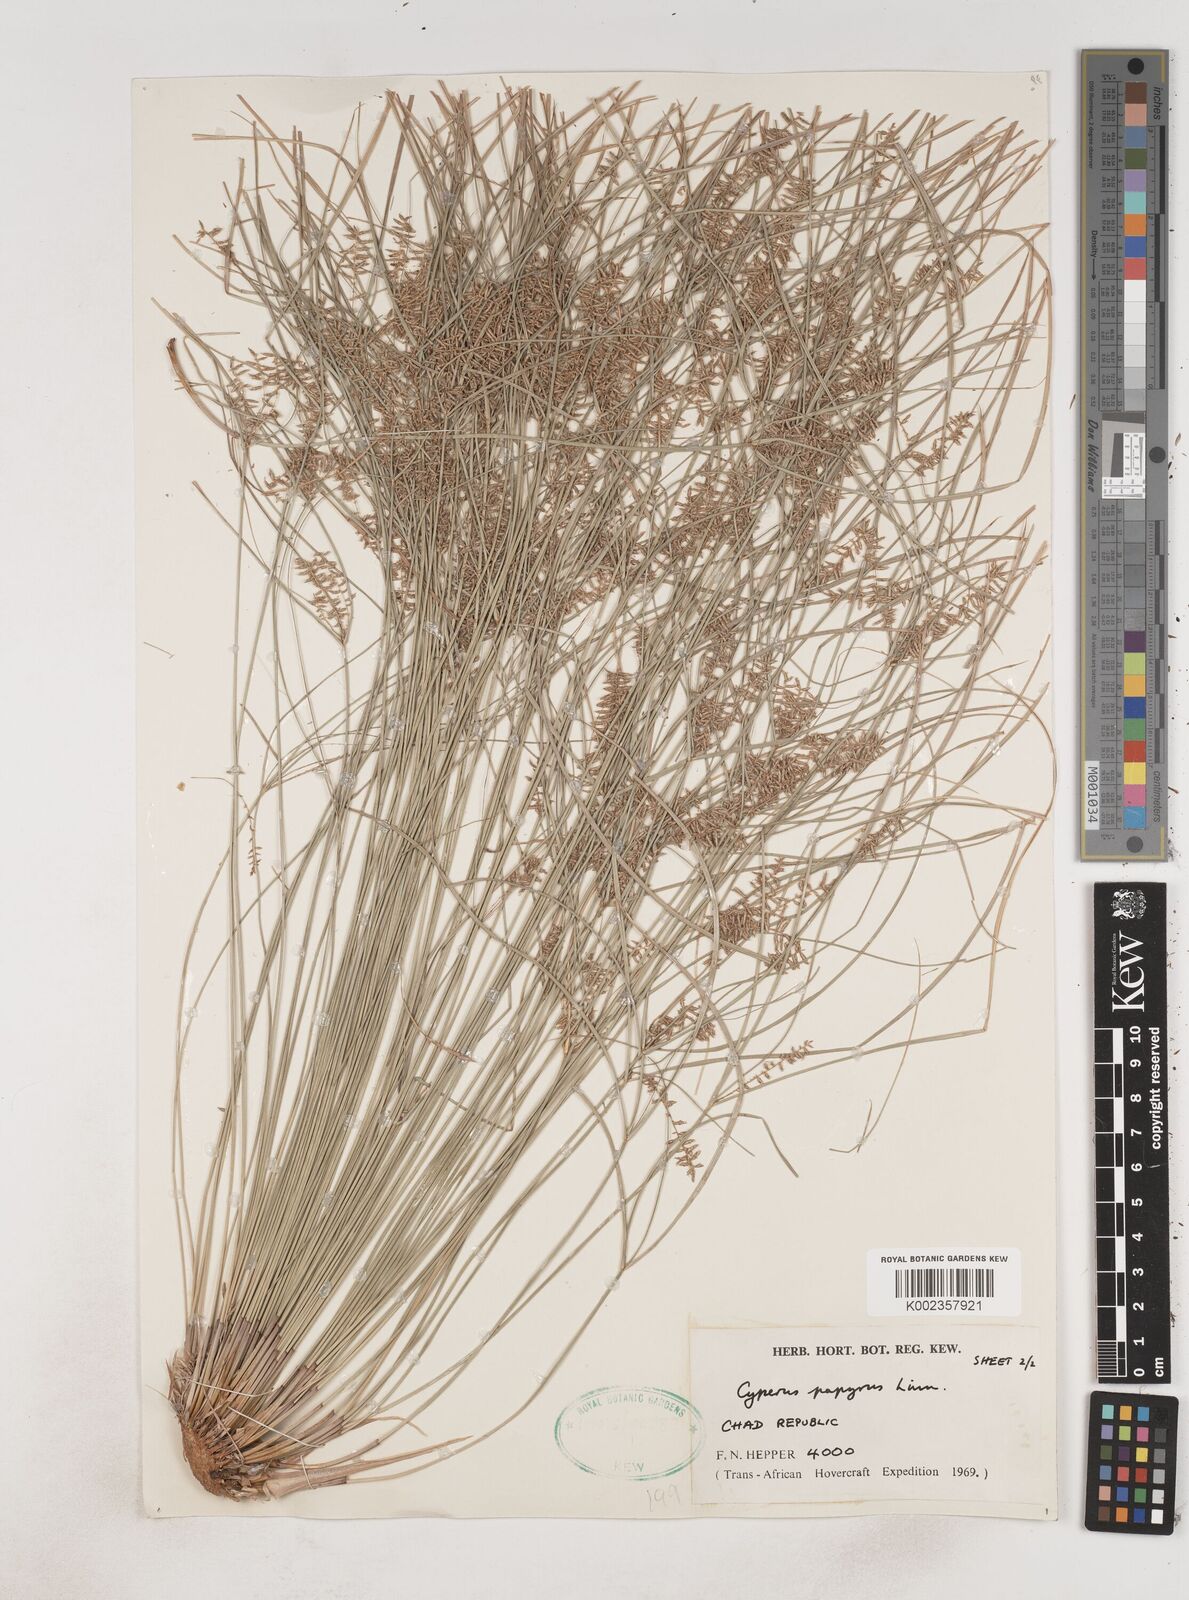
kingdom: Plantae
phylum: Tracheophyta
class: Liliopsida
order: Poales
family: Cyperaceae
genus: Cyperus
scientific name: Cyperus papyrus
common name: Papyrus
